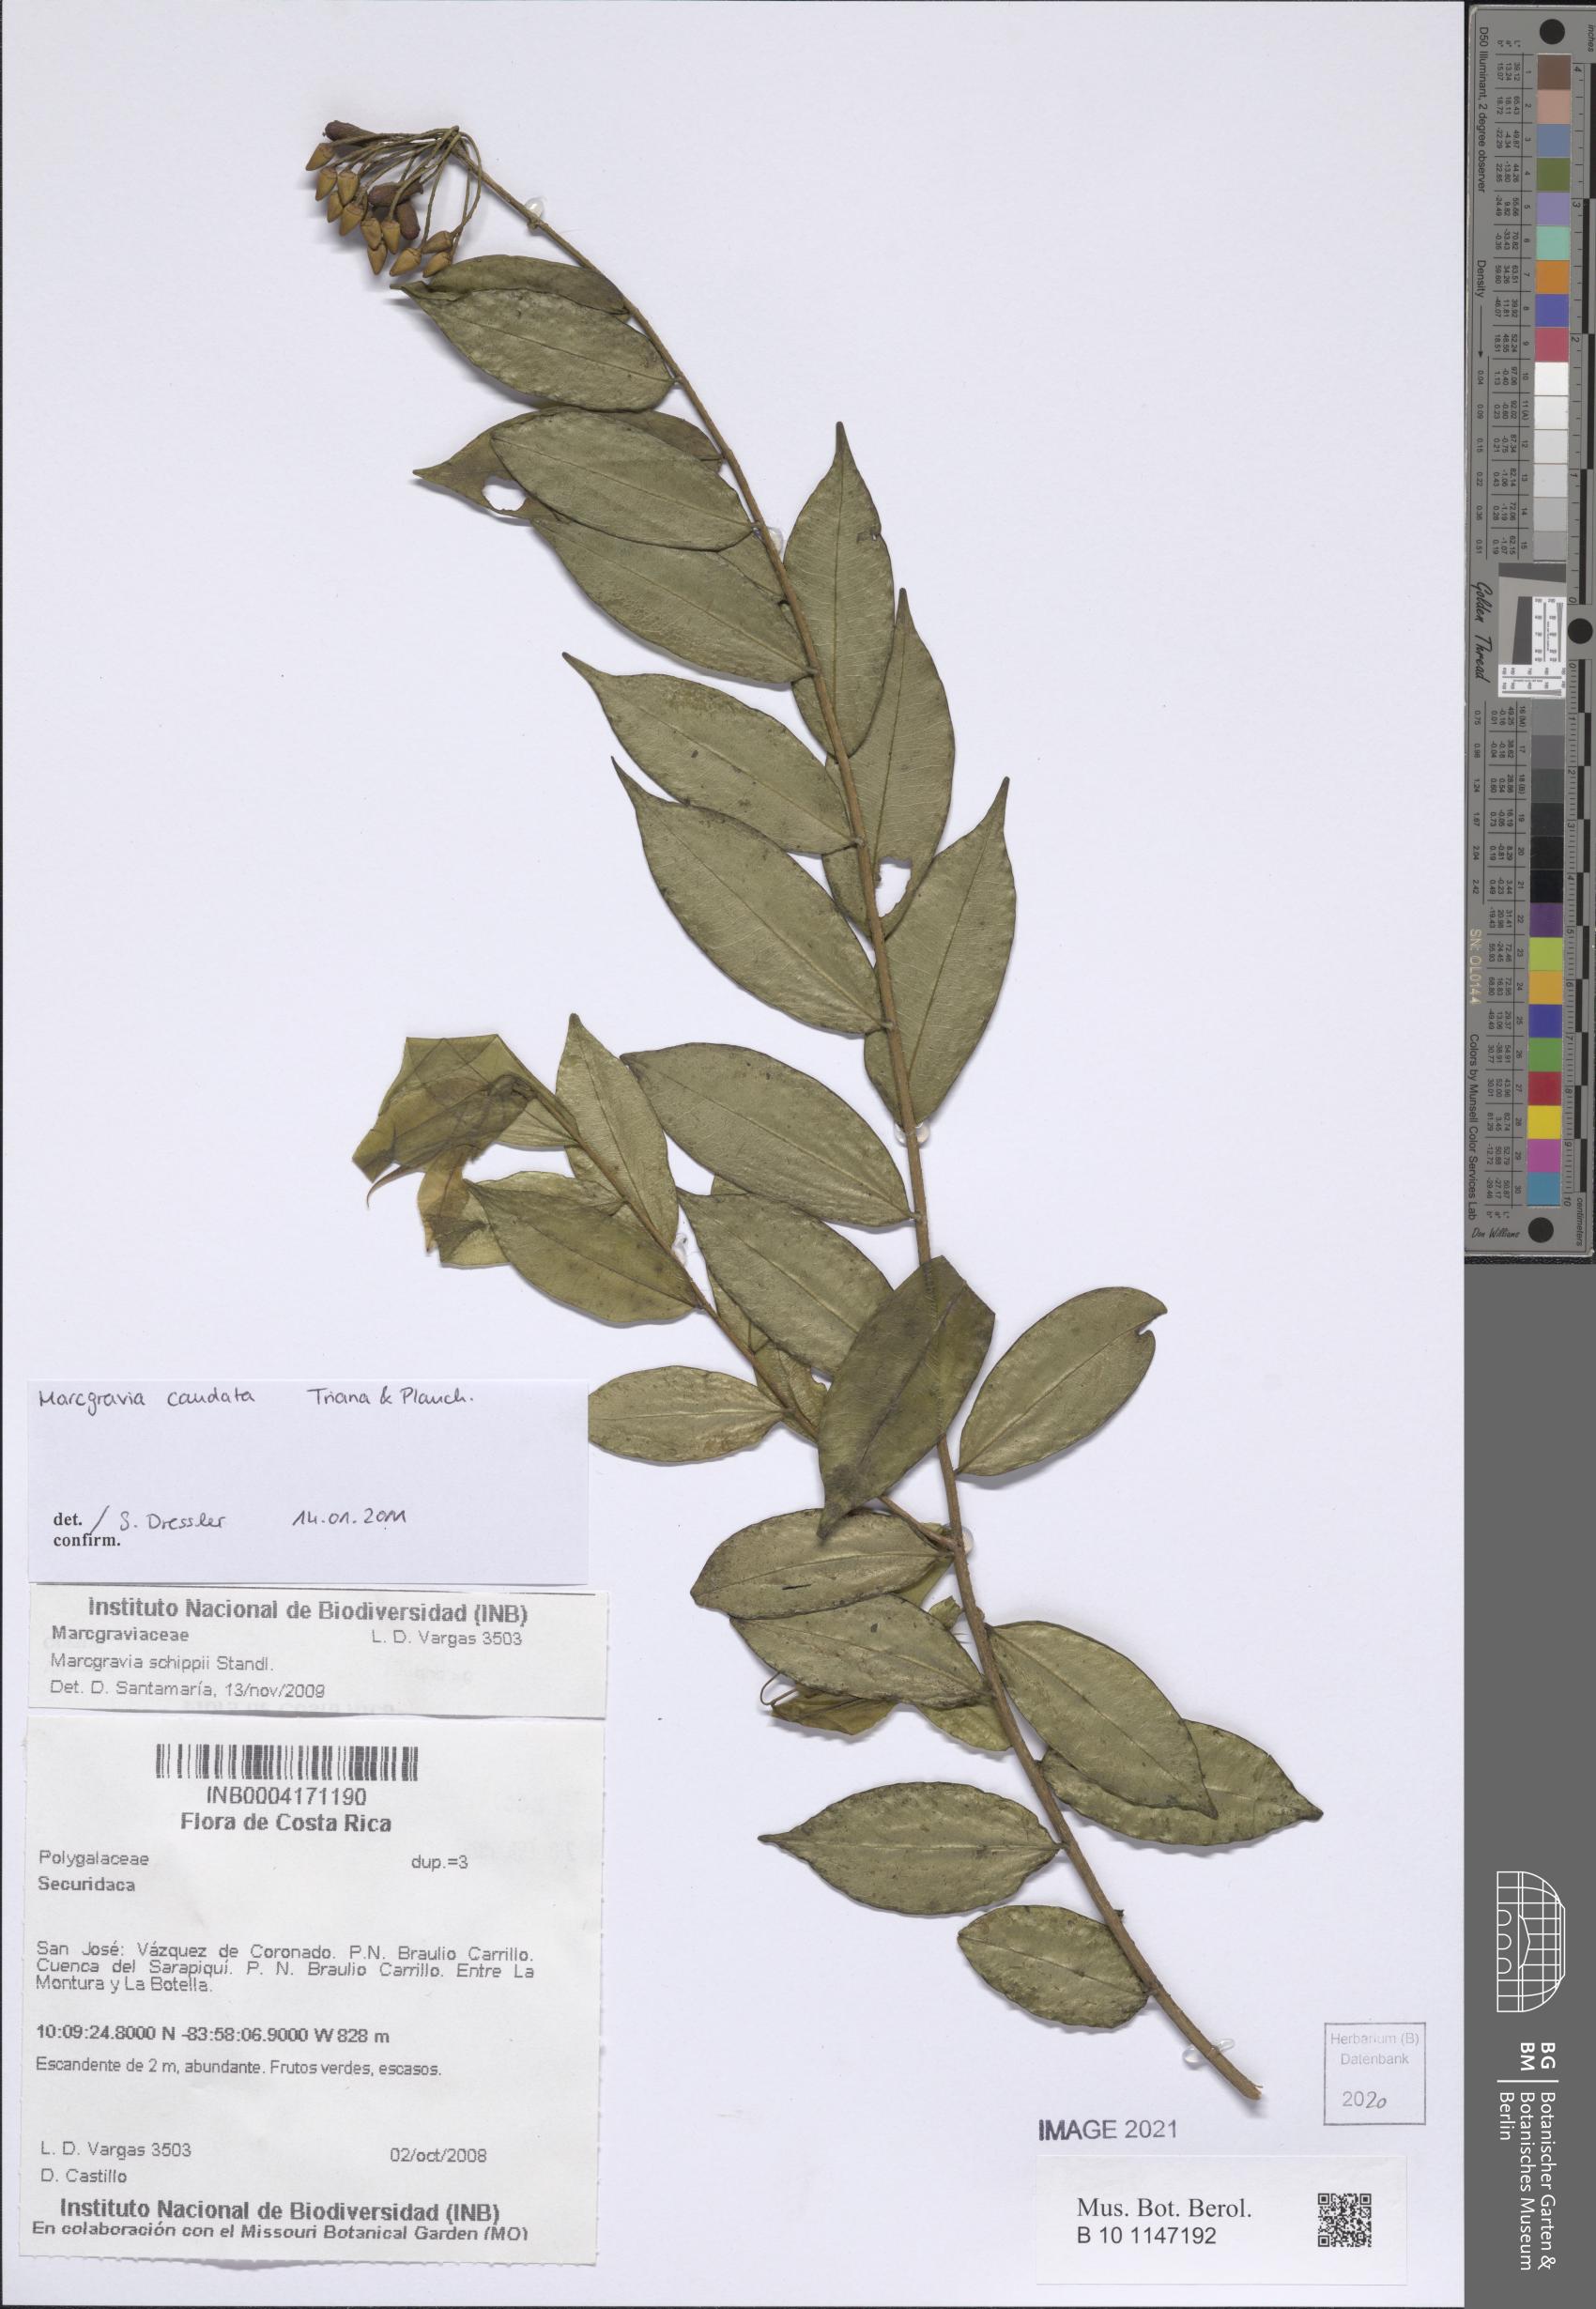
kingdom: Plantae
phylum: Tracheophyta
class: Magnoliopsida
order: Ericales
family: Marcgraviaceae
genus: Marcgravia
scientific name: Marcgravia caudata
